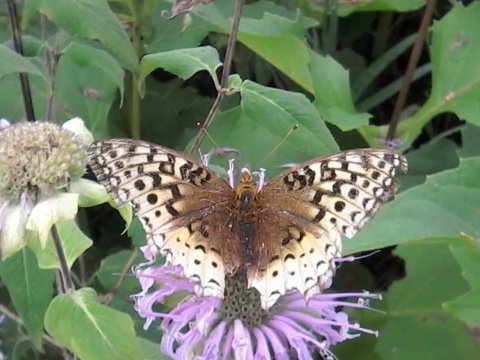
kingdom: Animalia
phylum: Arthropoda
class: Insecta
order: Lepidoptera
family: Nymphalidae
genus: Speyeria
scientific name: Speyeria cybele
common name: Great Spangled Fritillary
